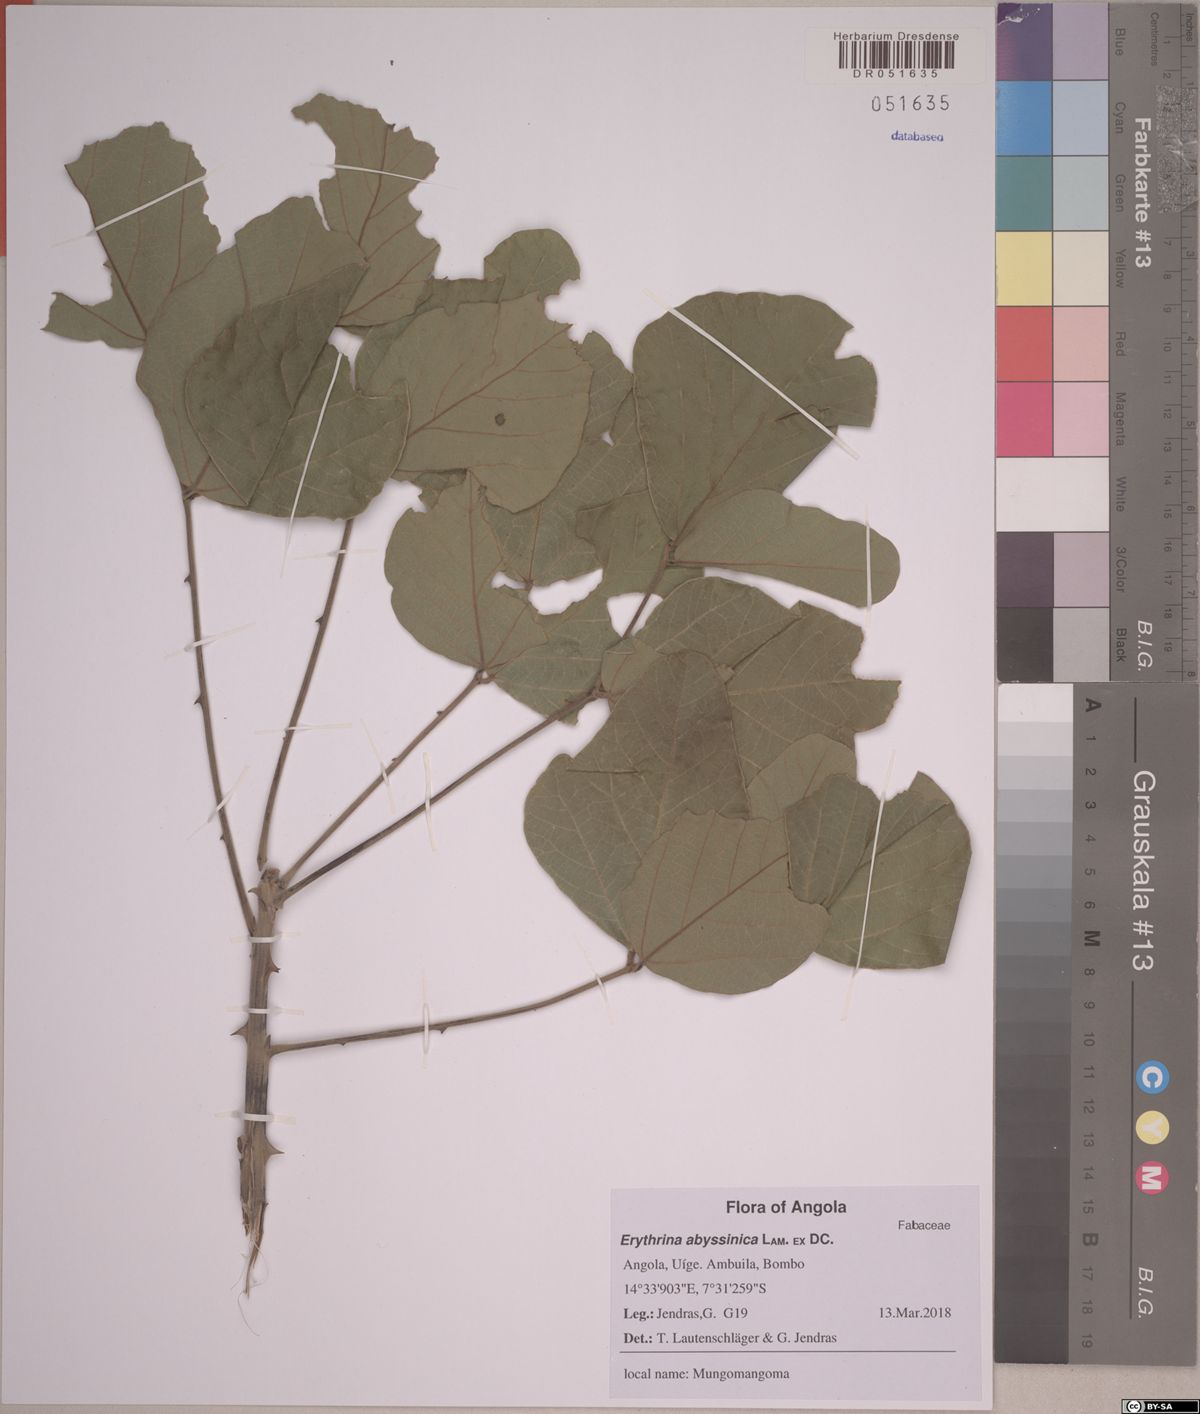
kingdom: Plantae
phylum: Tracheophyta
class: Magnoliopsida
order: Fabales
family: Fabaceae
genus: Erythrina
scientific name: Erythrina abyssinica
